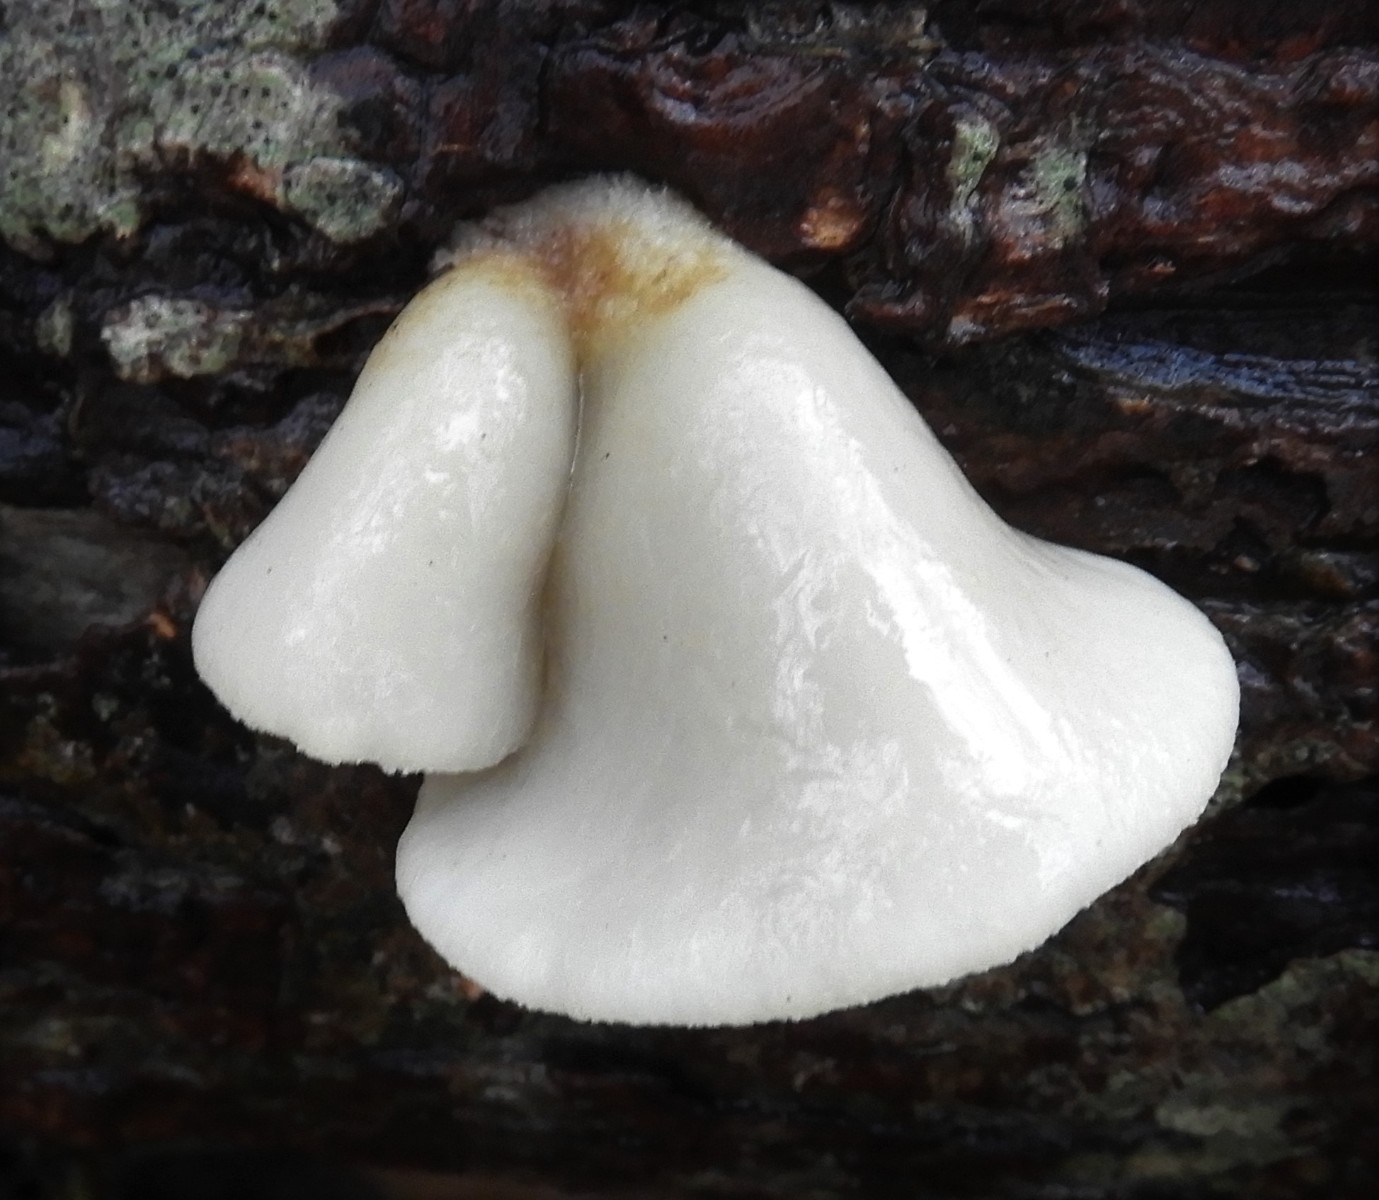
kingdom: Fungi
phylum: Basidiomycota
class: Agaricomycetes
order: Agaricales
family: Crepidotaceae
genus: Crepidotus
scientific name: Crepidotus mollis
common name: blød muslingesvamp
